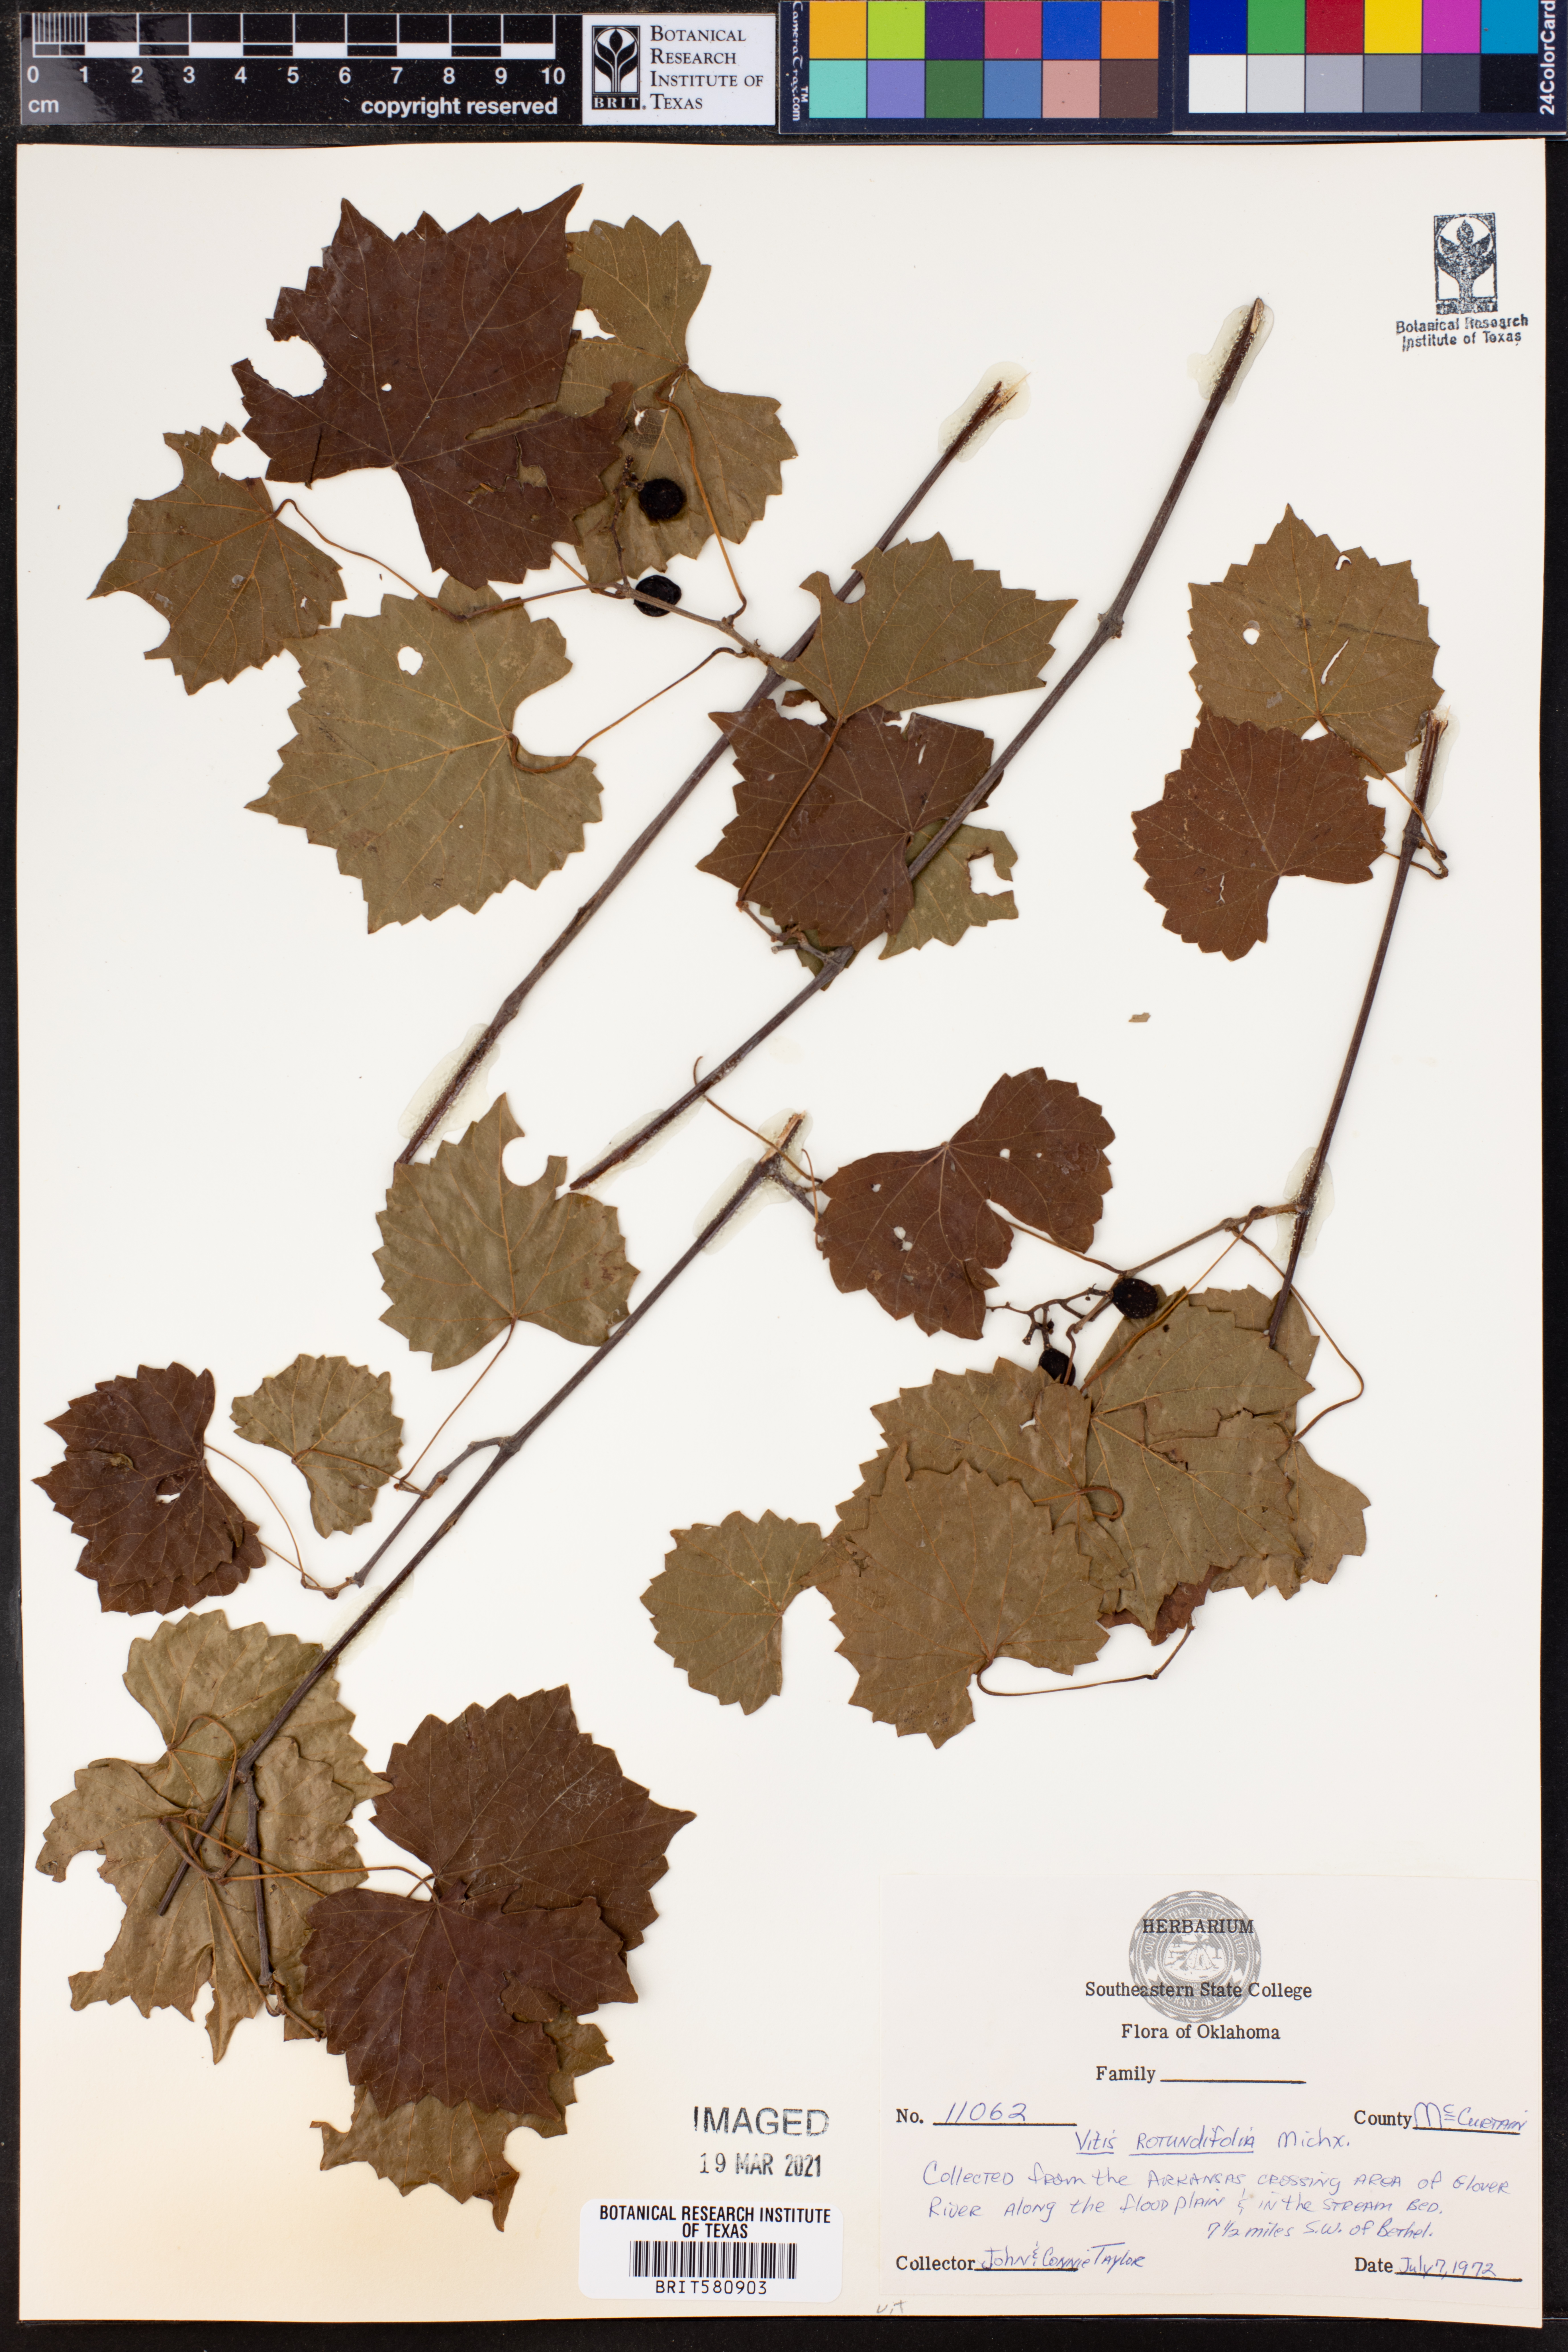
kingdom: Plantae
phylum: Tracheophyta
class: Magnoliopsida
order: Vitales
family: Vitaceae
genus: Vitis
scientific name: Vitis rotundifolia
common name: Muscadine grape
